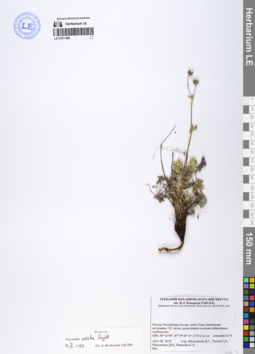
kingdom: Plantae
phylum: Tracheophyta
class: Magnoliopsida
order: Rosales
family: Rosaceae
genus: Potentilla
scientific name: Potentilla exuta
